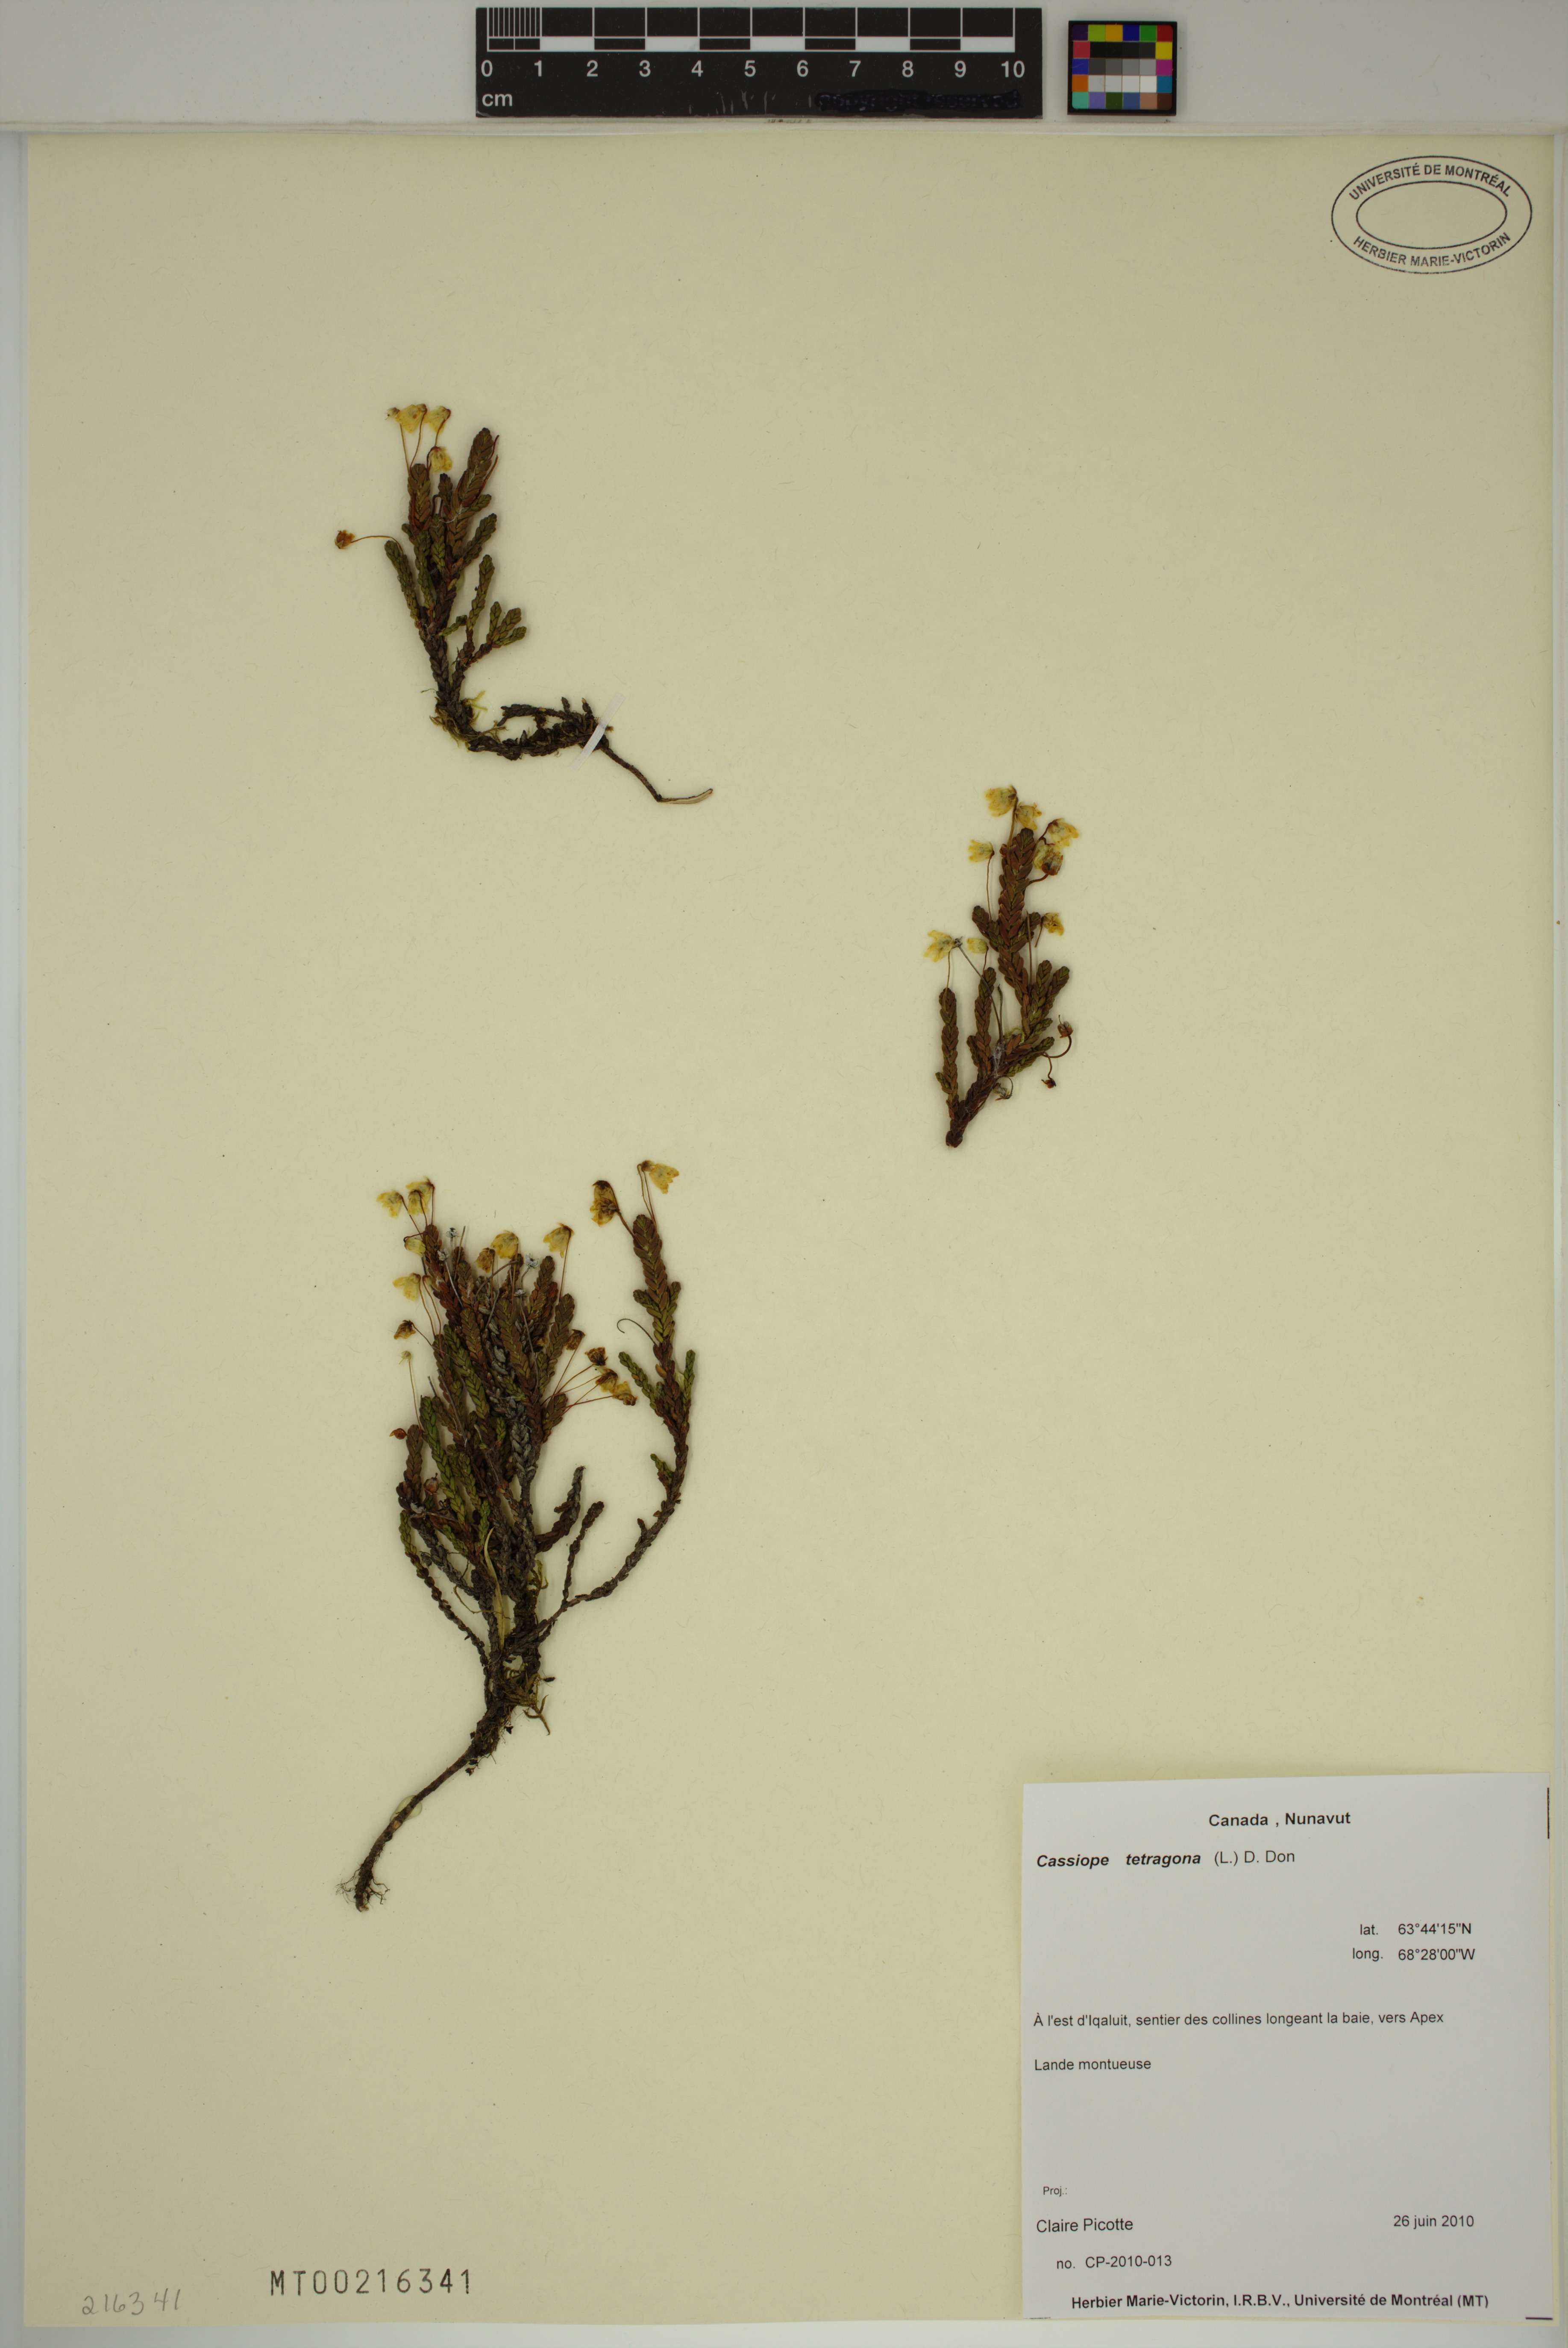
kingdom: Plantae
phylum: Tracheophyta
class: Magnoliopsida
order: Ericales
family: Ericaceae
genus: Cassiope
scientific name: Cassiope tetragona
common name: Arctic bell heather
